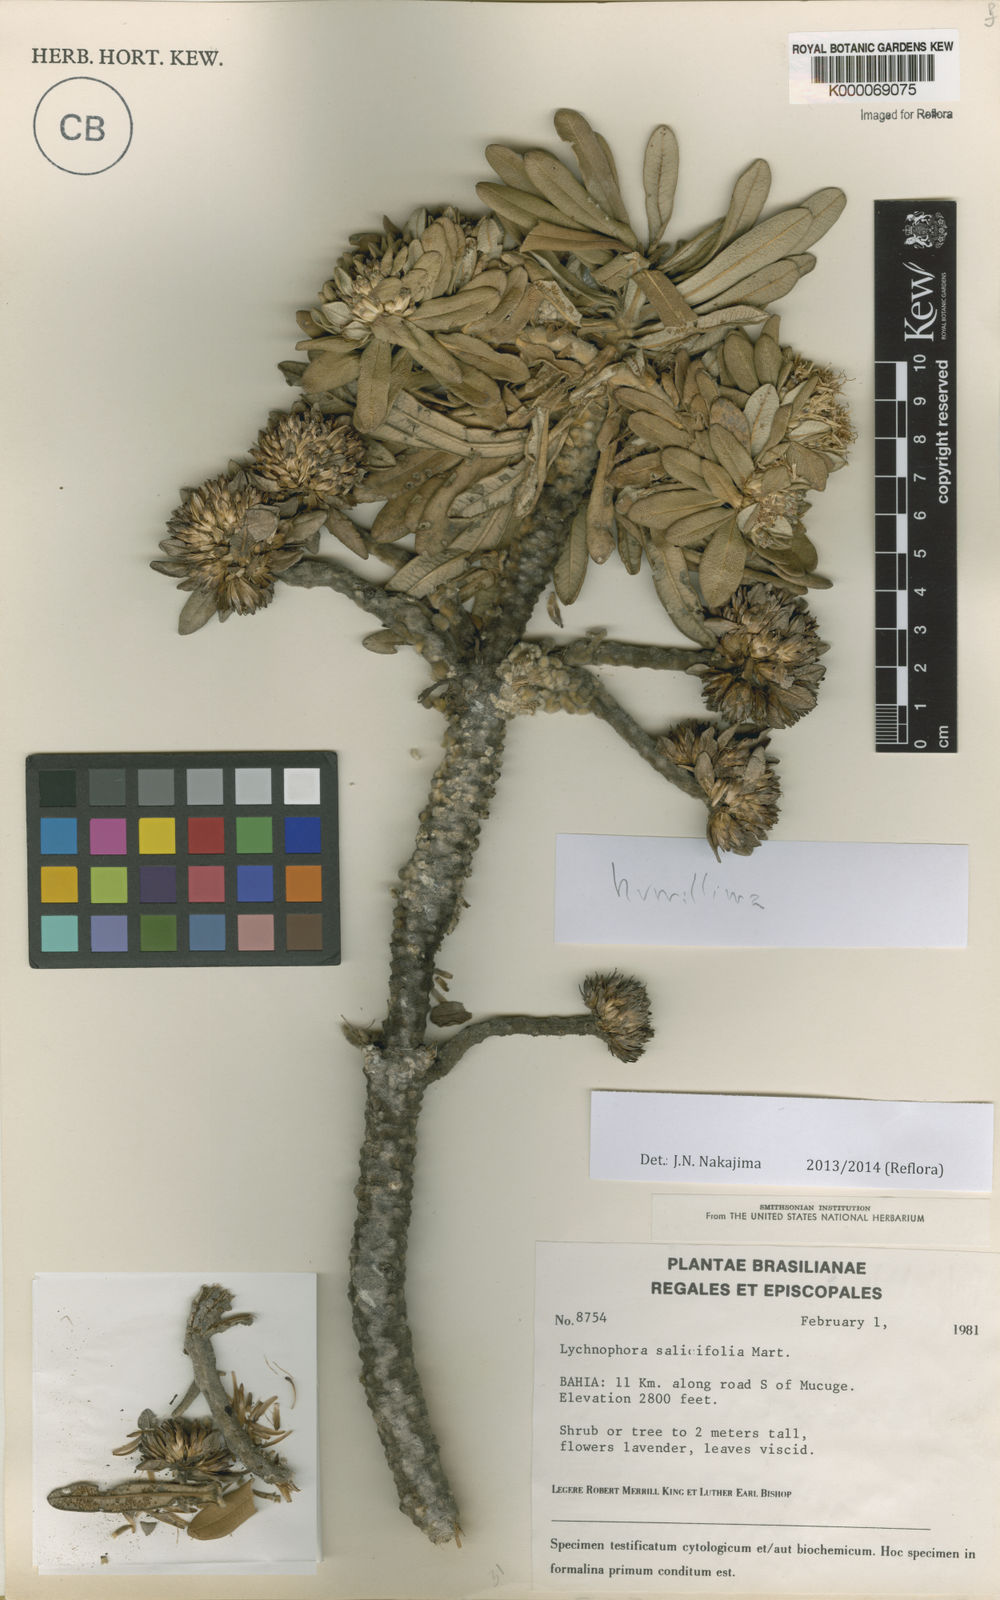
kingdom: Plantae
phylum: Tracheophyta
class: Magnoliopsida
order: Asterales
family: Asteraceae
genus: Lychnophora
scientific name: Lychnophora salicifolia
